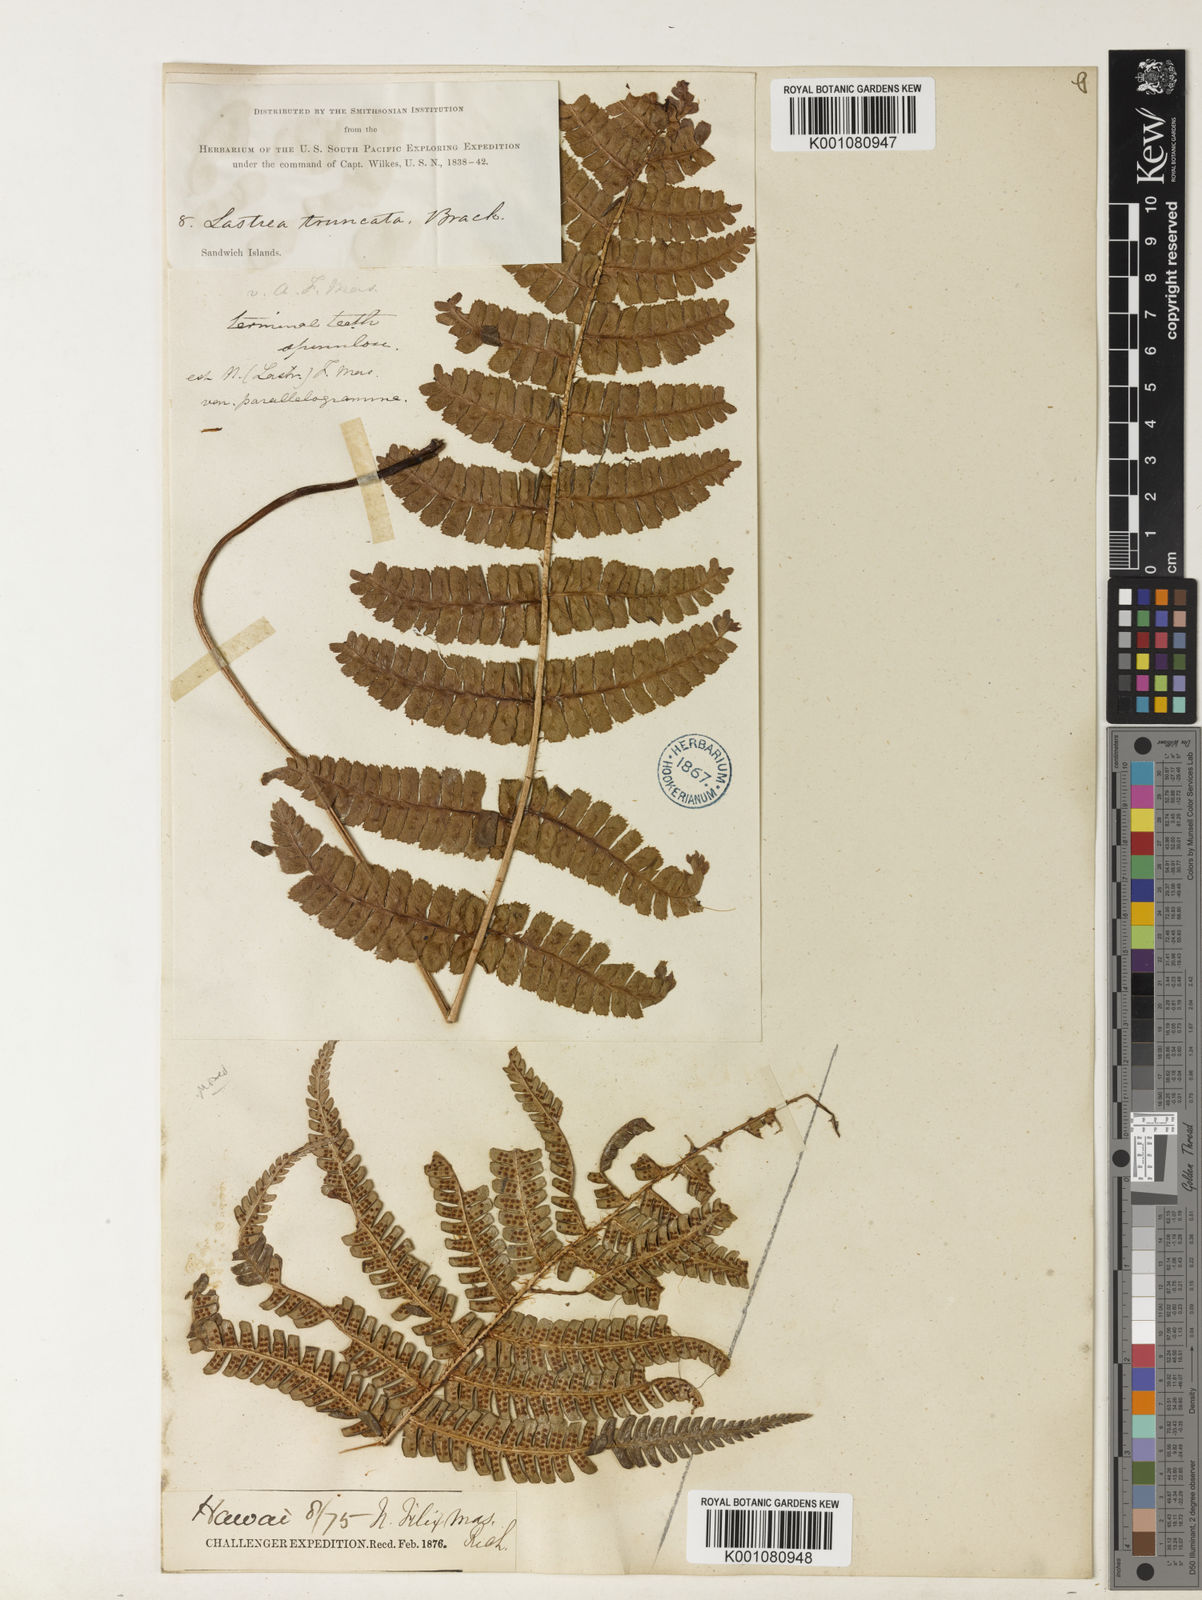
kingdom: Plantae
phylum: Tracheophyta
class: Polypodiopsida
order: Polypodiales
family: Dryopteridaceae
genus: Dryopteris
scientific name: Dryopteris borreri
